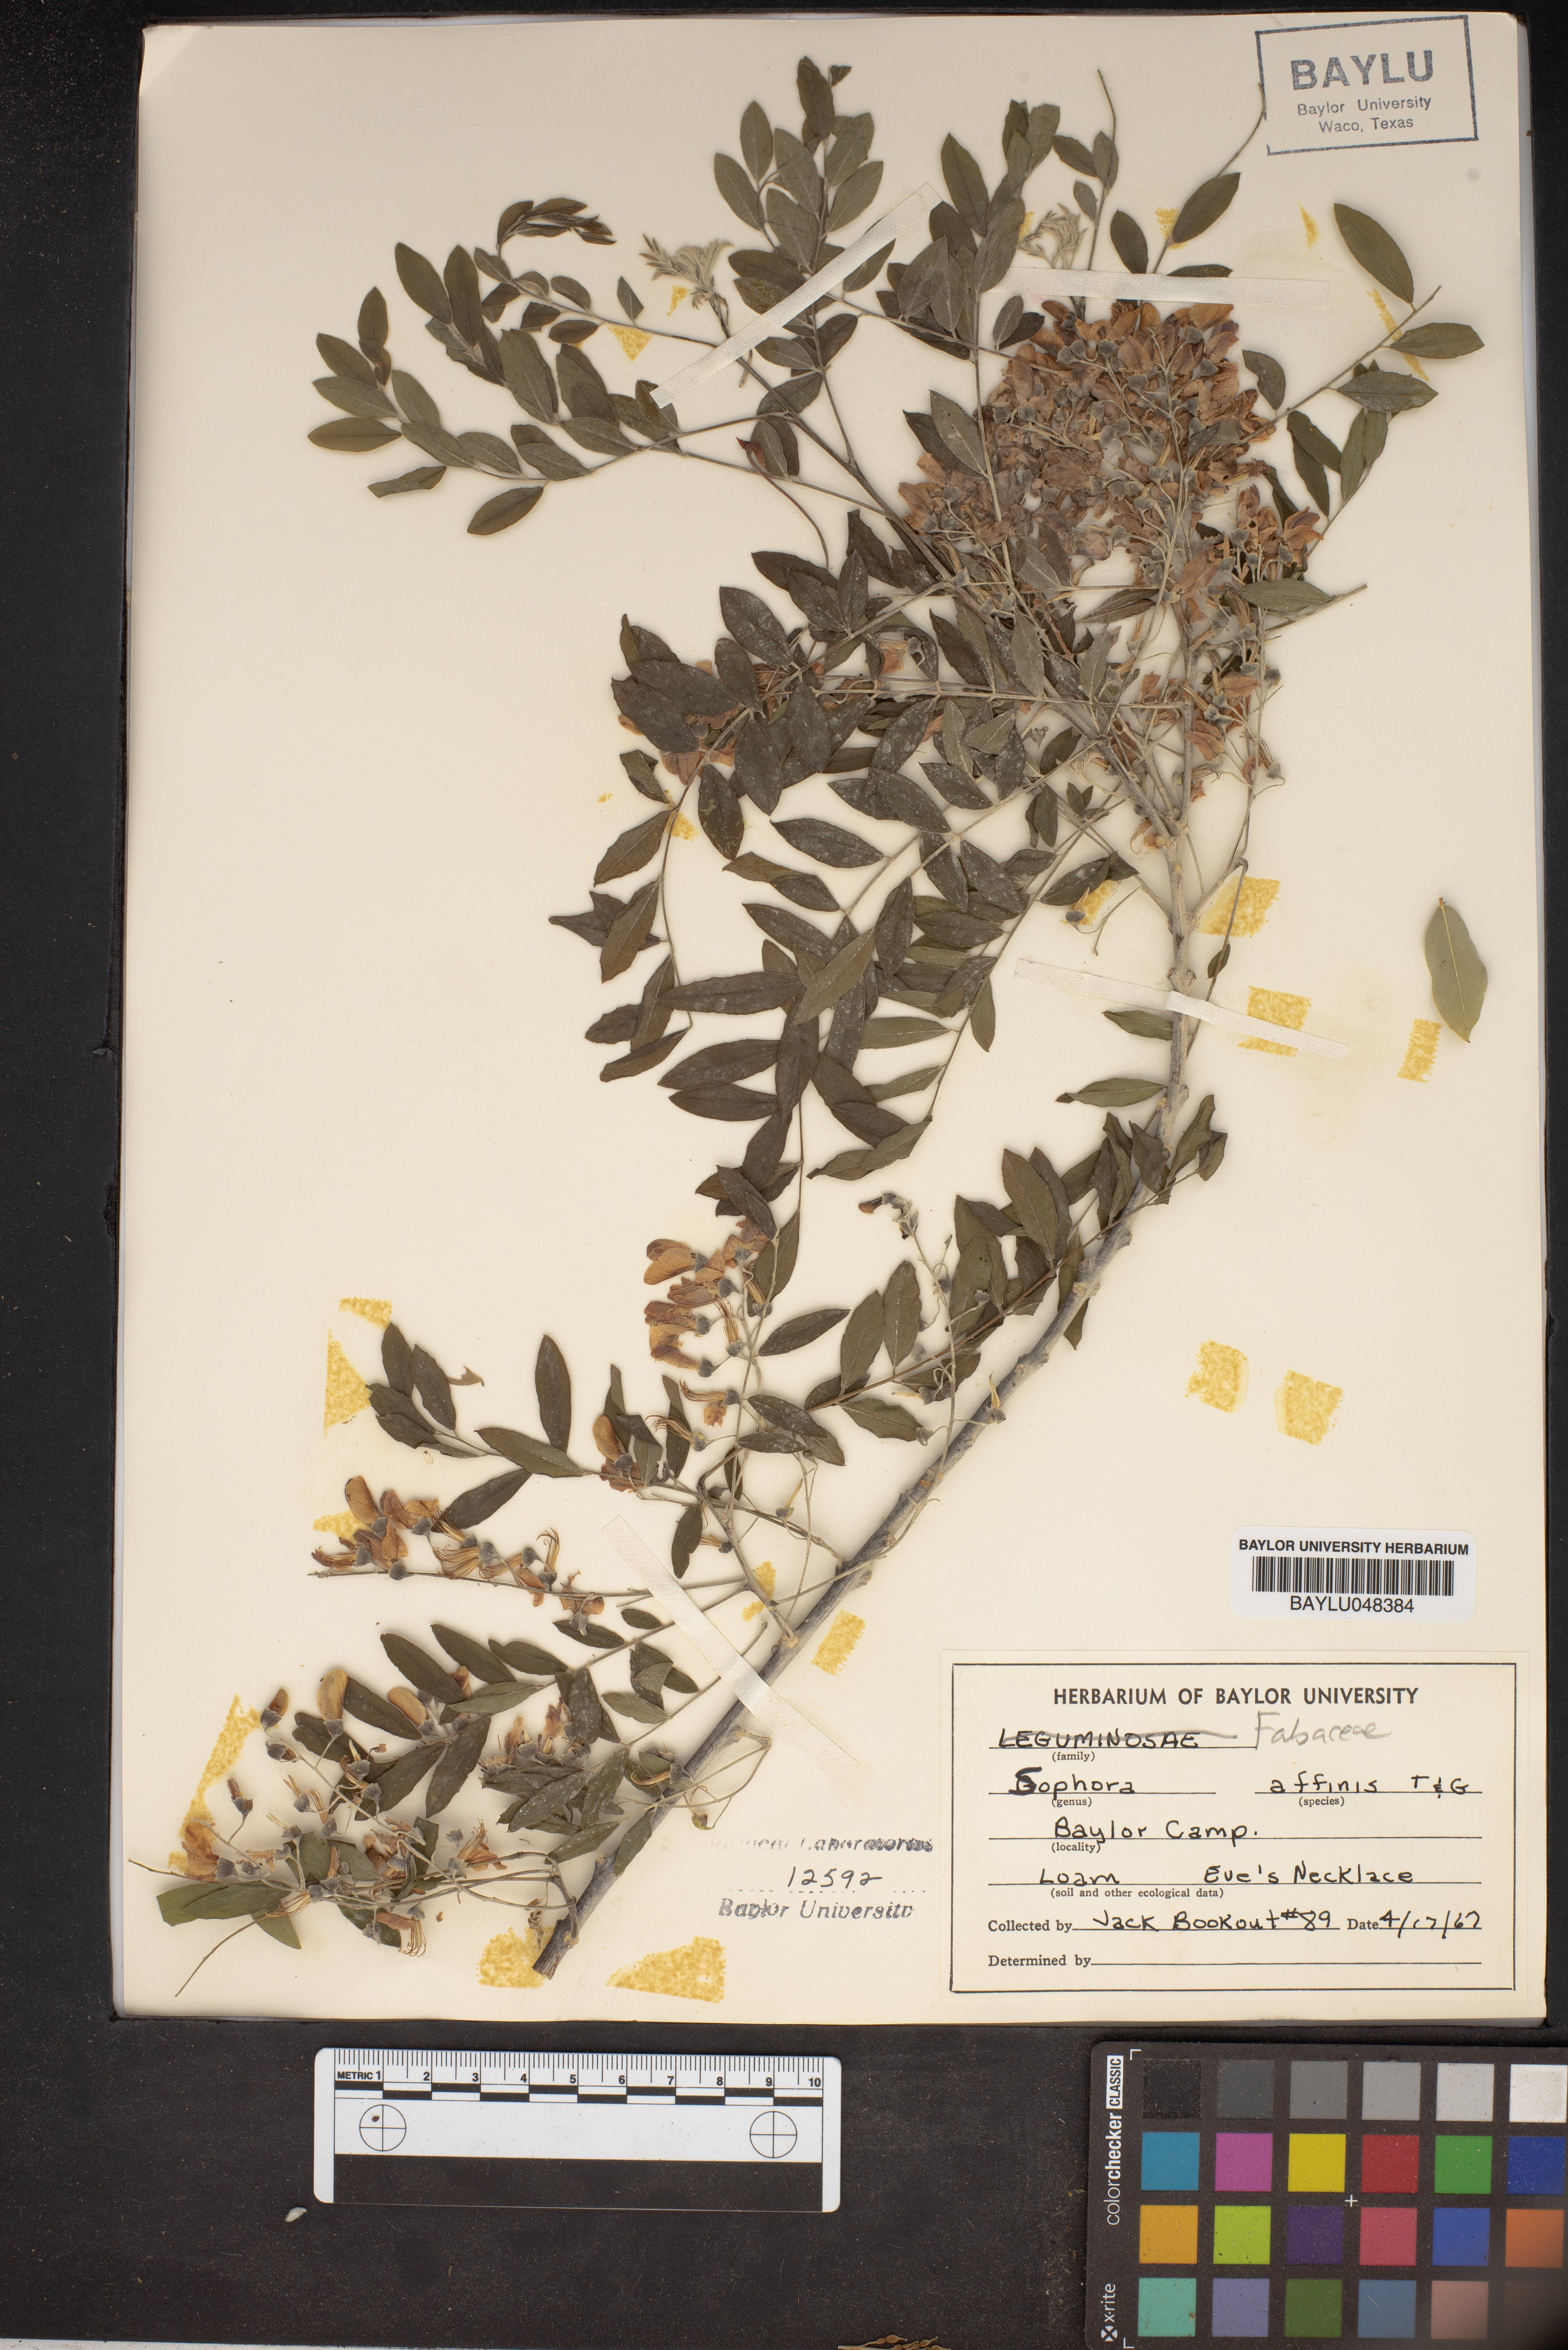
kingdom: Plantae
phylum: Tracheophyta
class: Magnoliopsida
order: Fabales
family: Fabaceae
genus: Styphnolobium
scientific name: Styphnolobium affine
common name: Texas sophora
